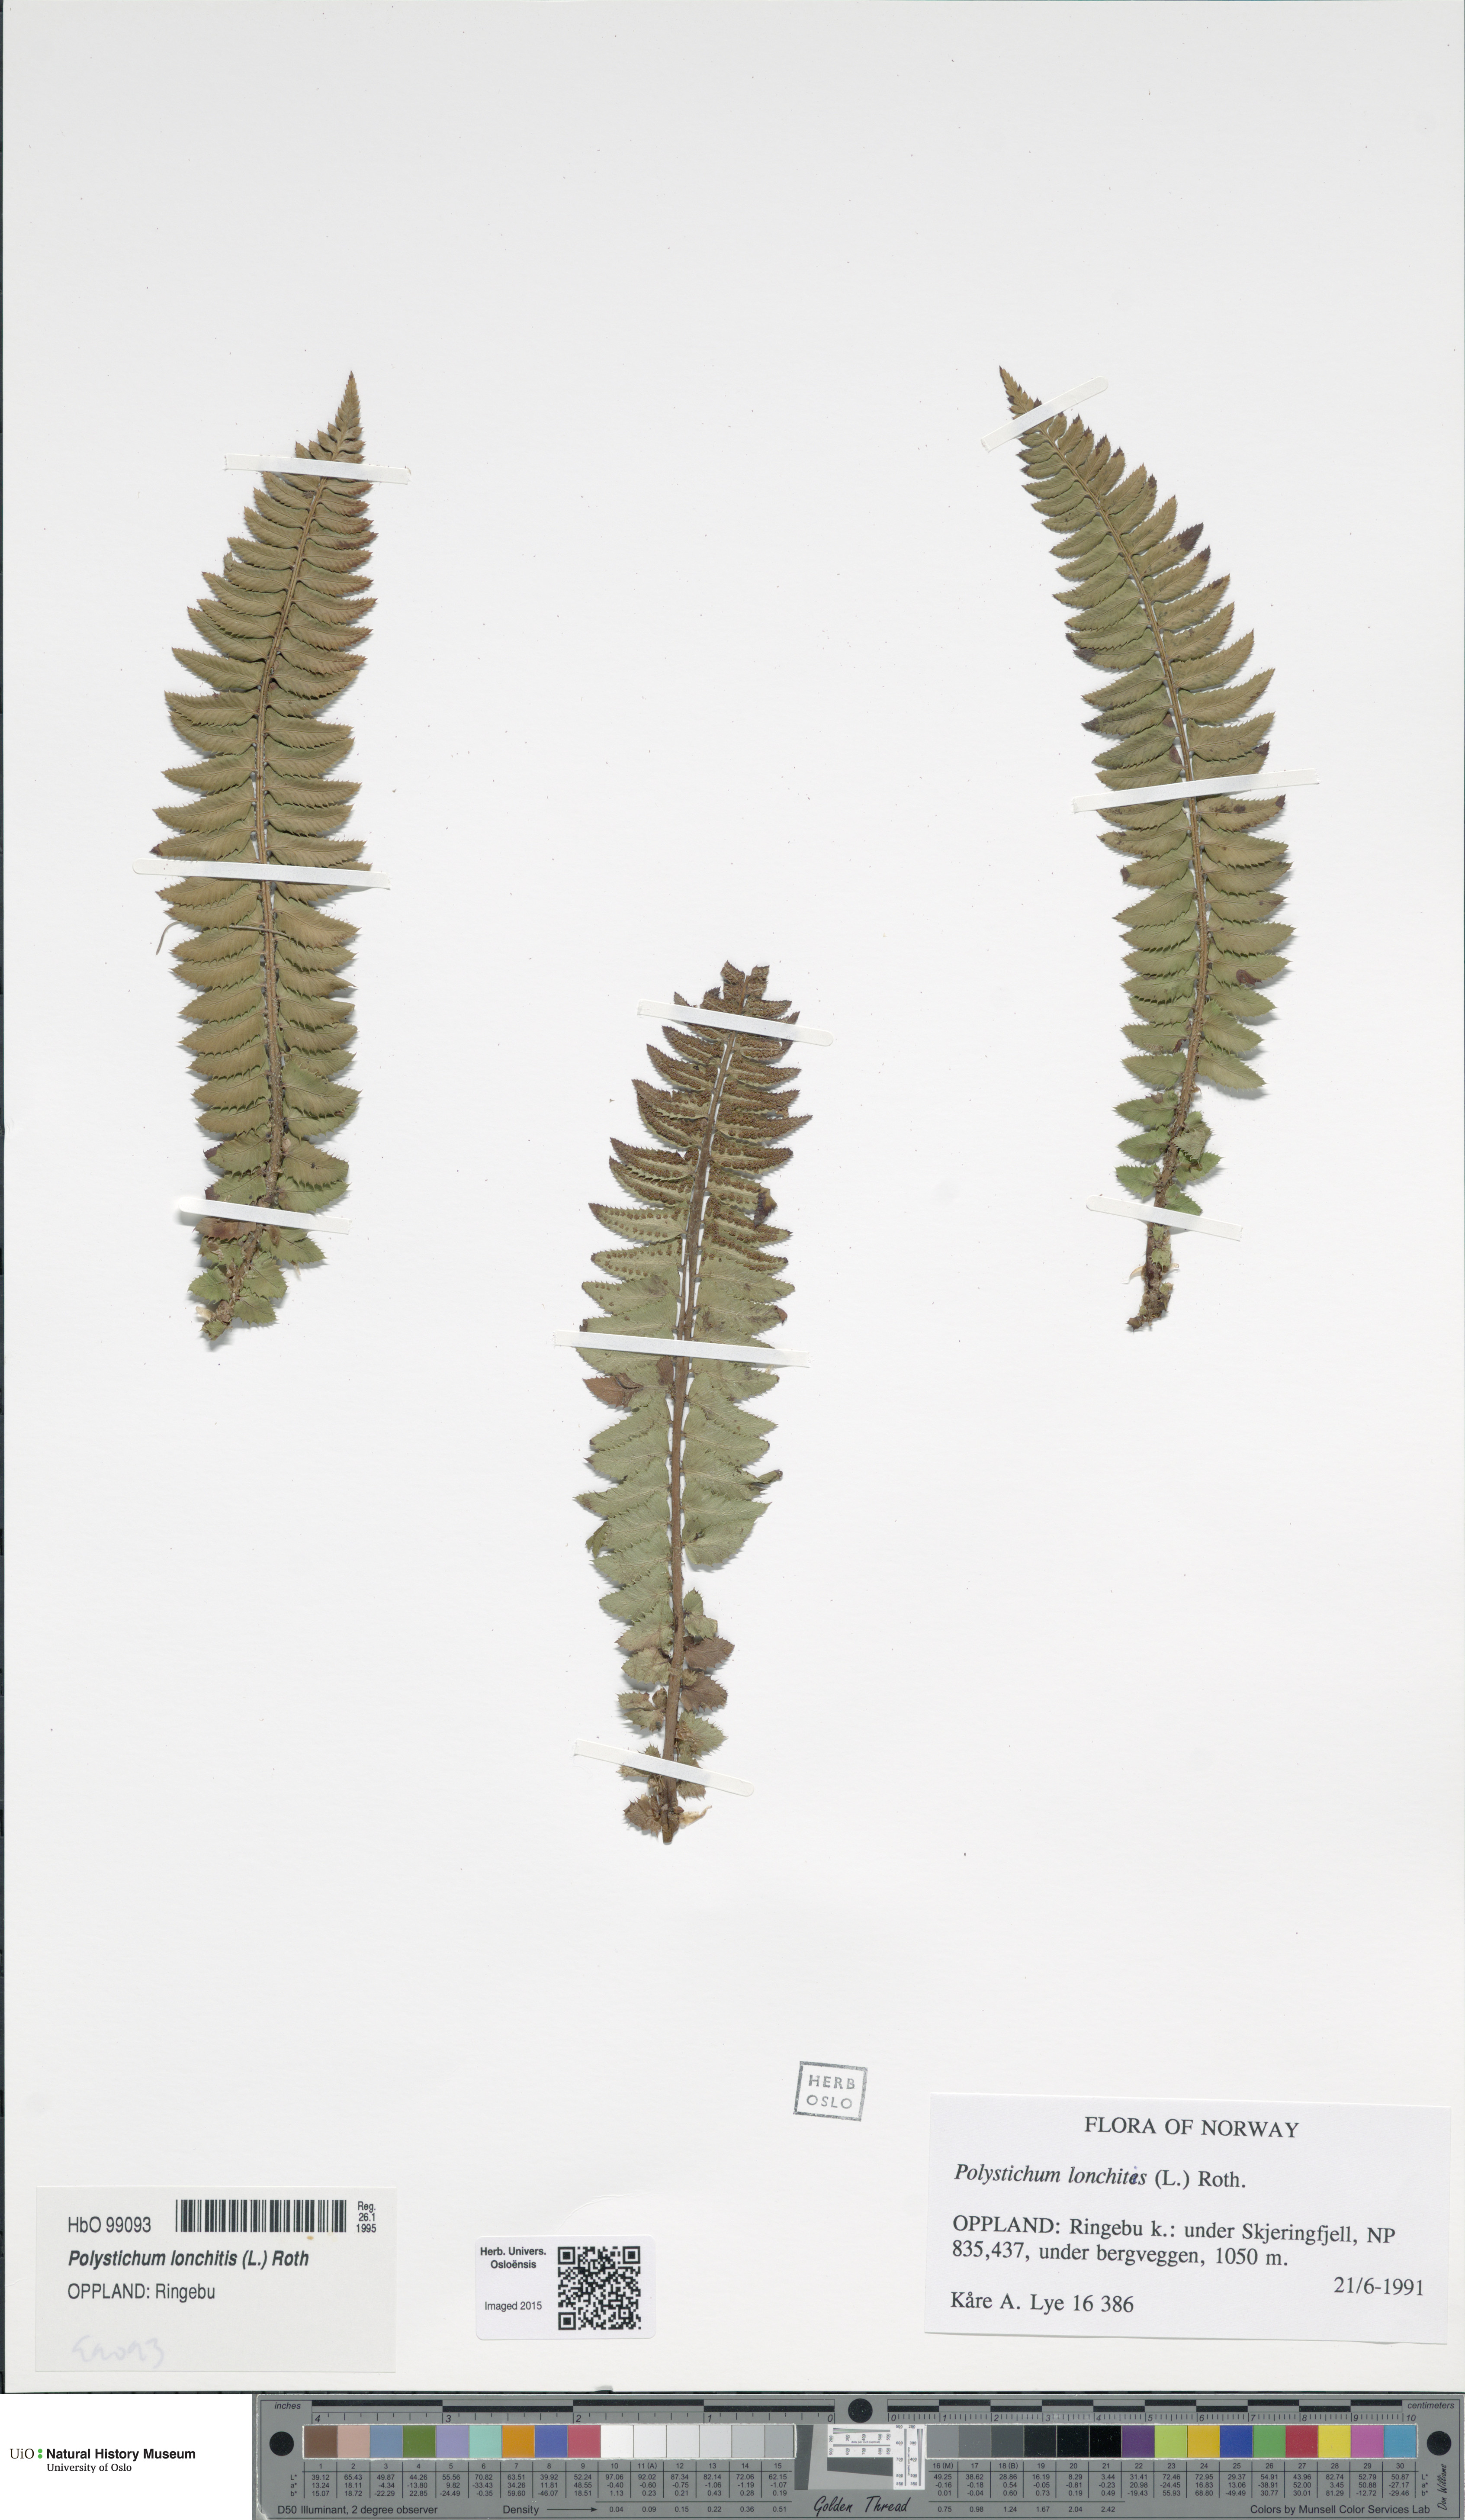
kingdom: Plantae
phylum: Tracheophyta
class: Polypodiopsida
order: Polypodiales
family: Dryopteridaceae
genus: Polystichum
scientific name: Polystichum lonchitis
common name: Holly fern
